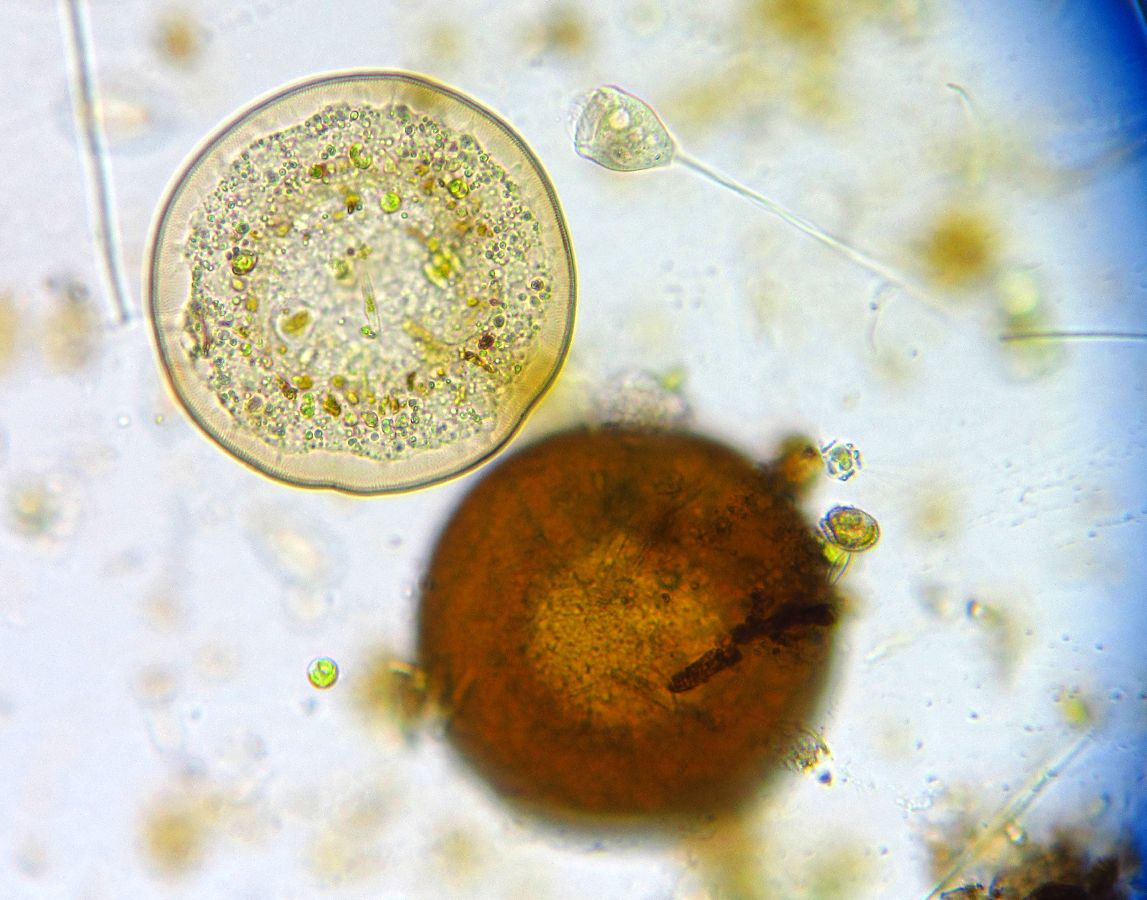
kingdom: Protozoa
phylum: Amoebozoa
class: Lobosa
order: Arcellinida
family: Arcellidae
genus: Arcella
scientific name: Arcella discoides
